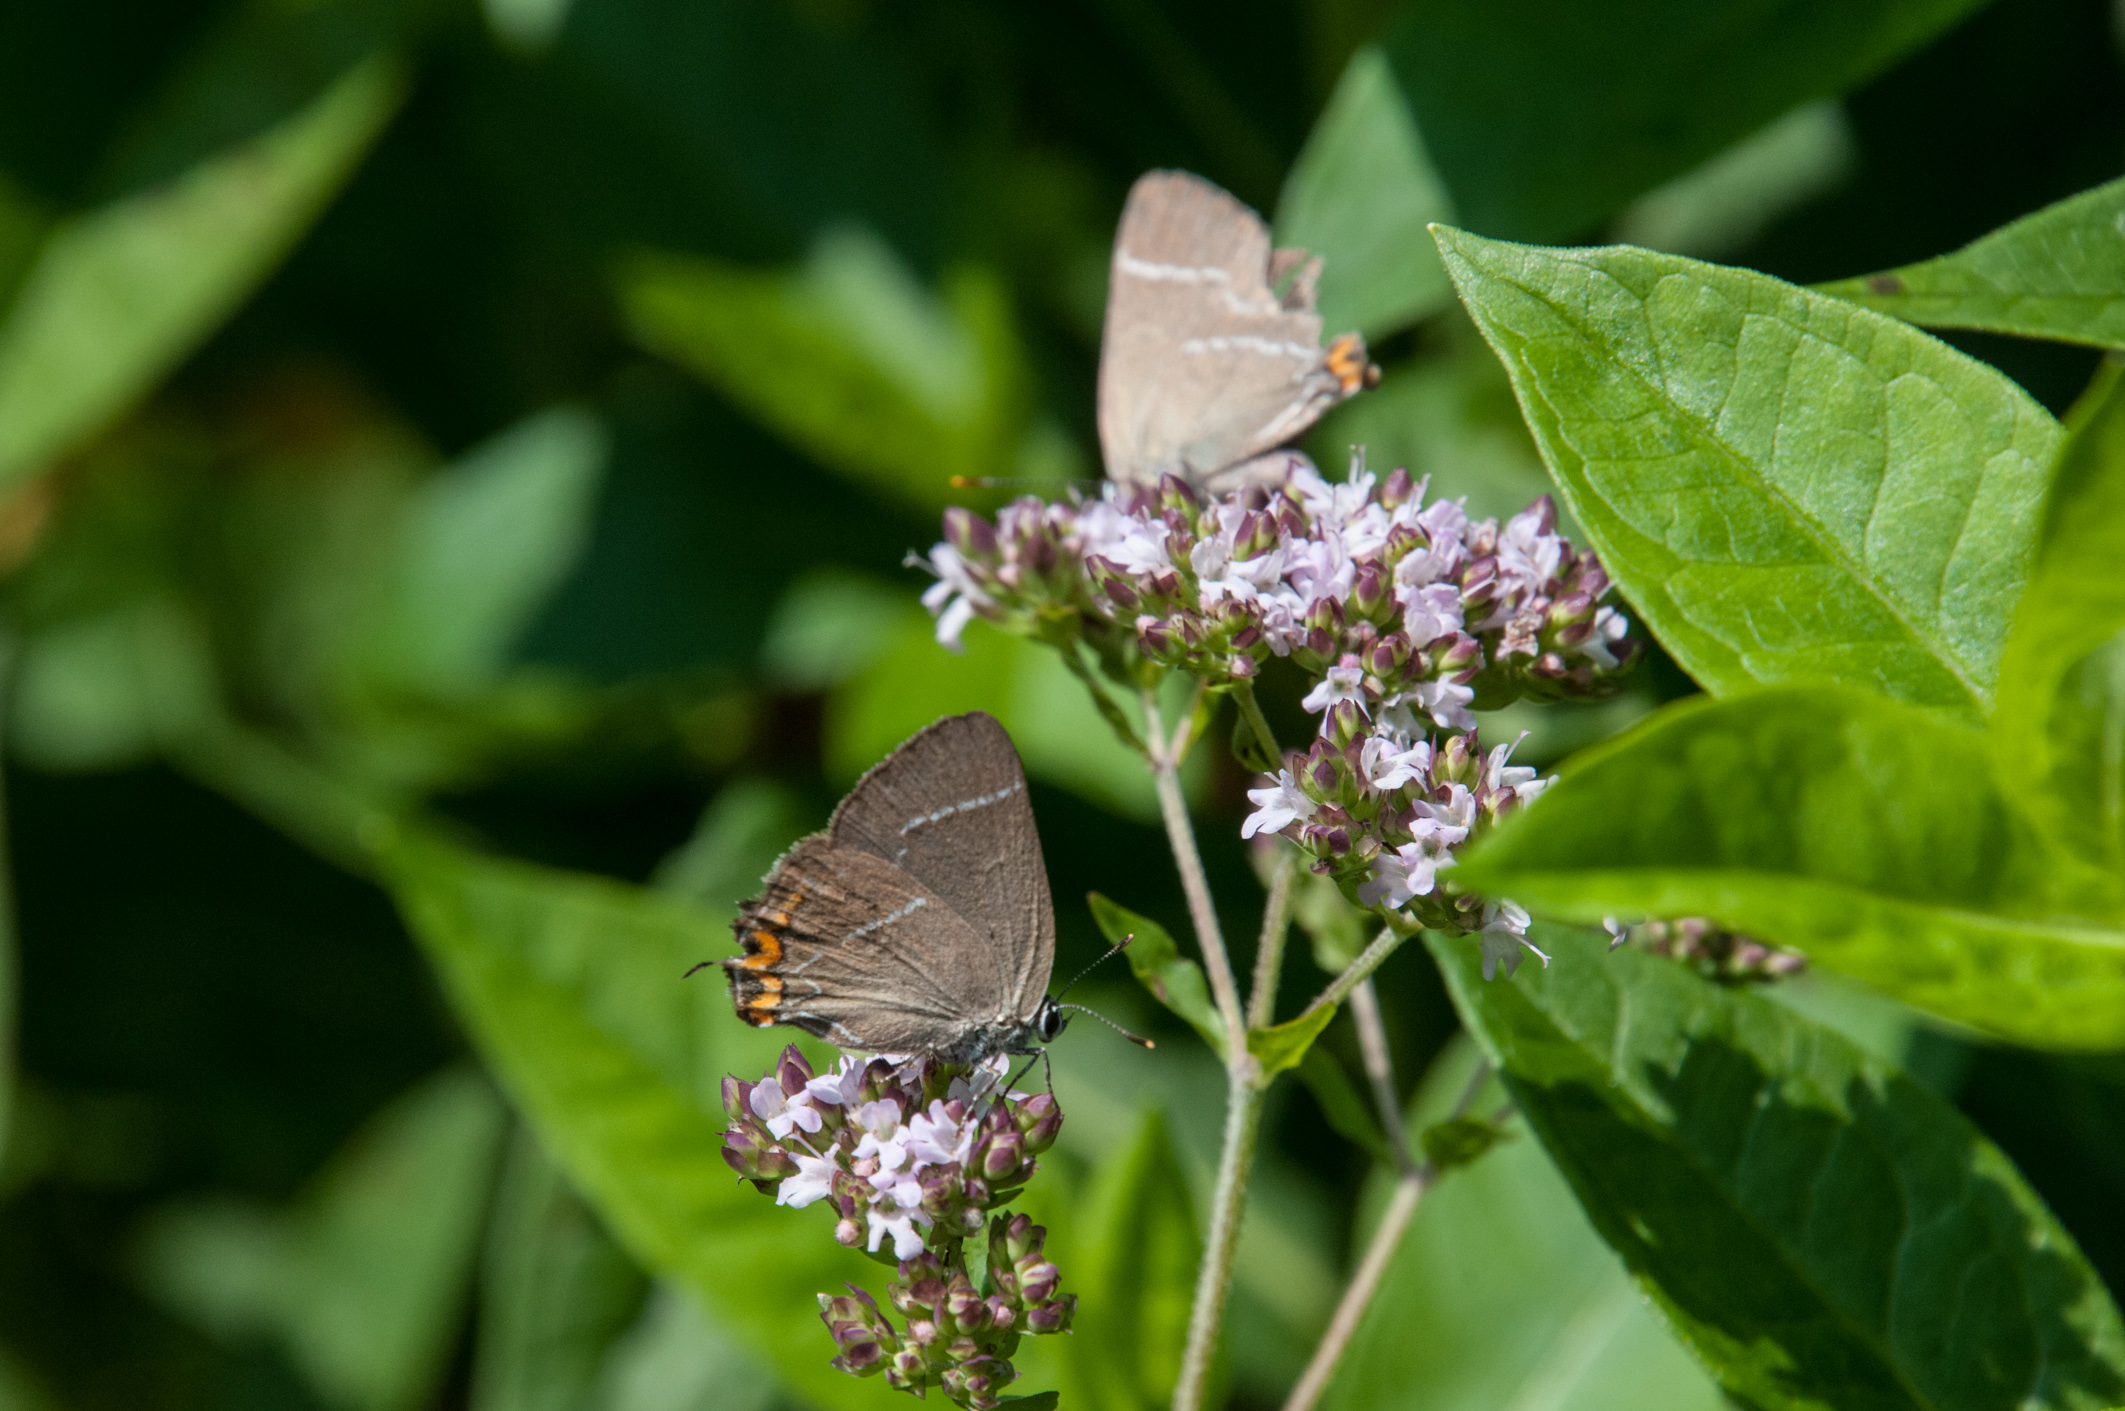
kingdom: Animalia
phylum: Arthropoda
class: Insecta
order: Lepidoptera
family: Lycaenidae
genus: Satyrium
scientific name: Satyrium w-album
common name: White-letter hairstreak
